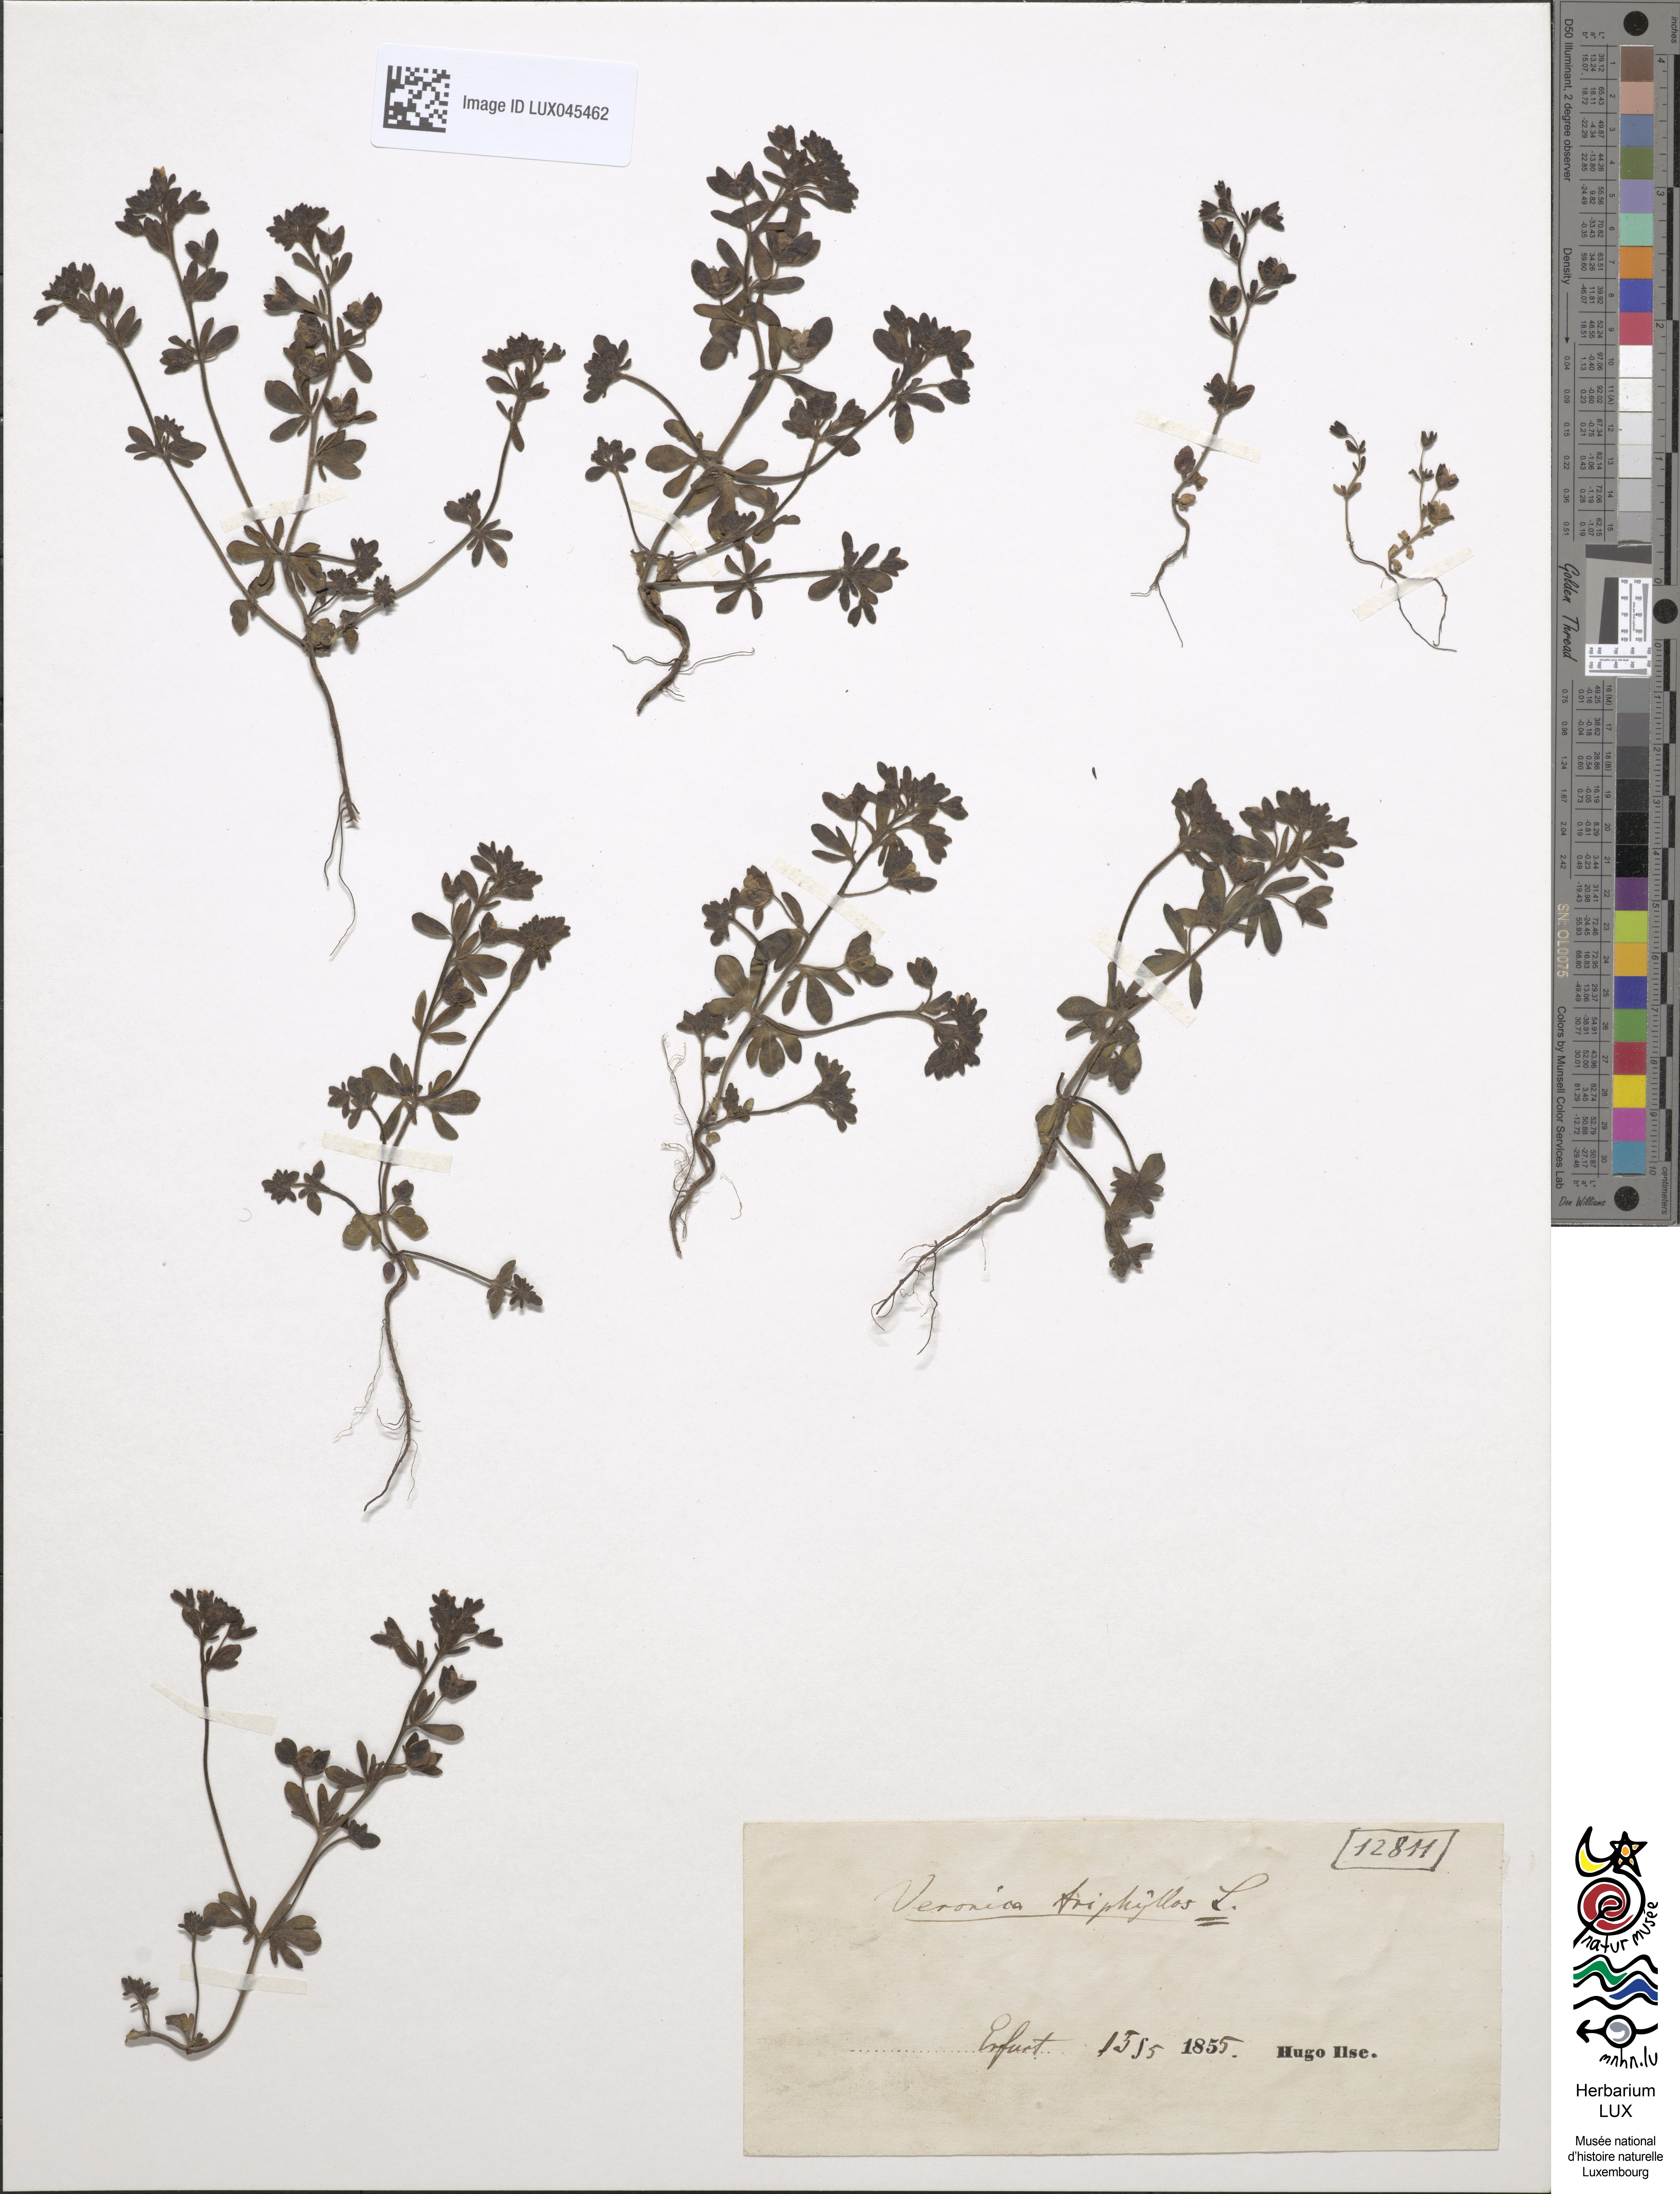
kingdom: Plantae
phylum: Tracheophyta
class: Magnoliopsida
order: Lamiales
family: Plantaginaceae
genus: Veronica
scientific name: Veronica triphyllos
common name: Fingered speedwell
